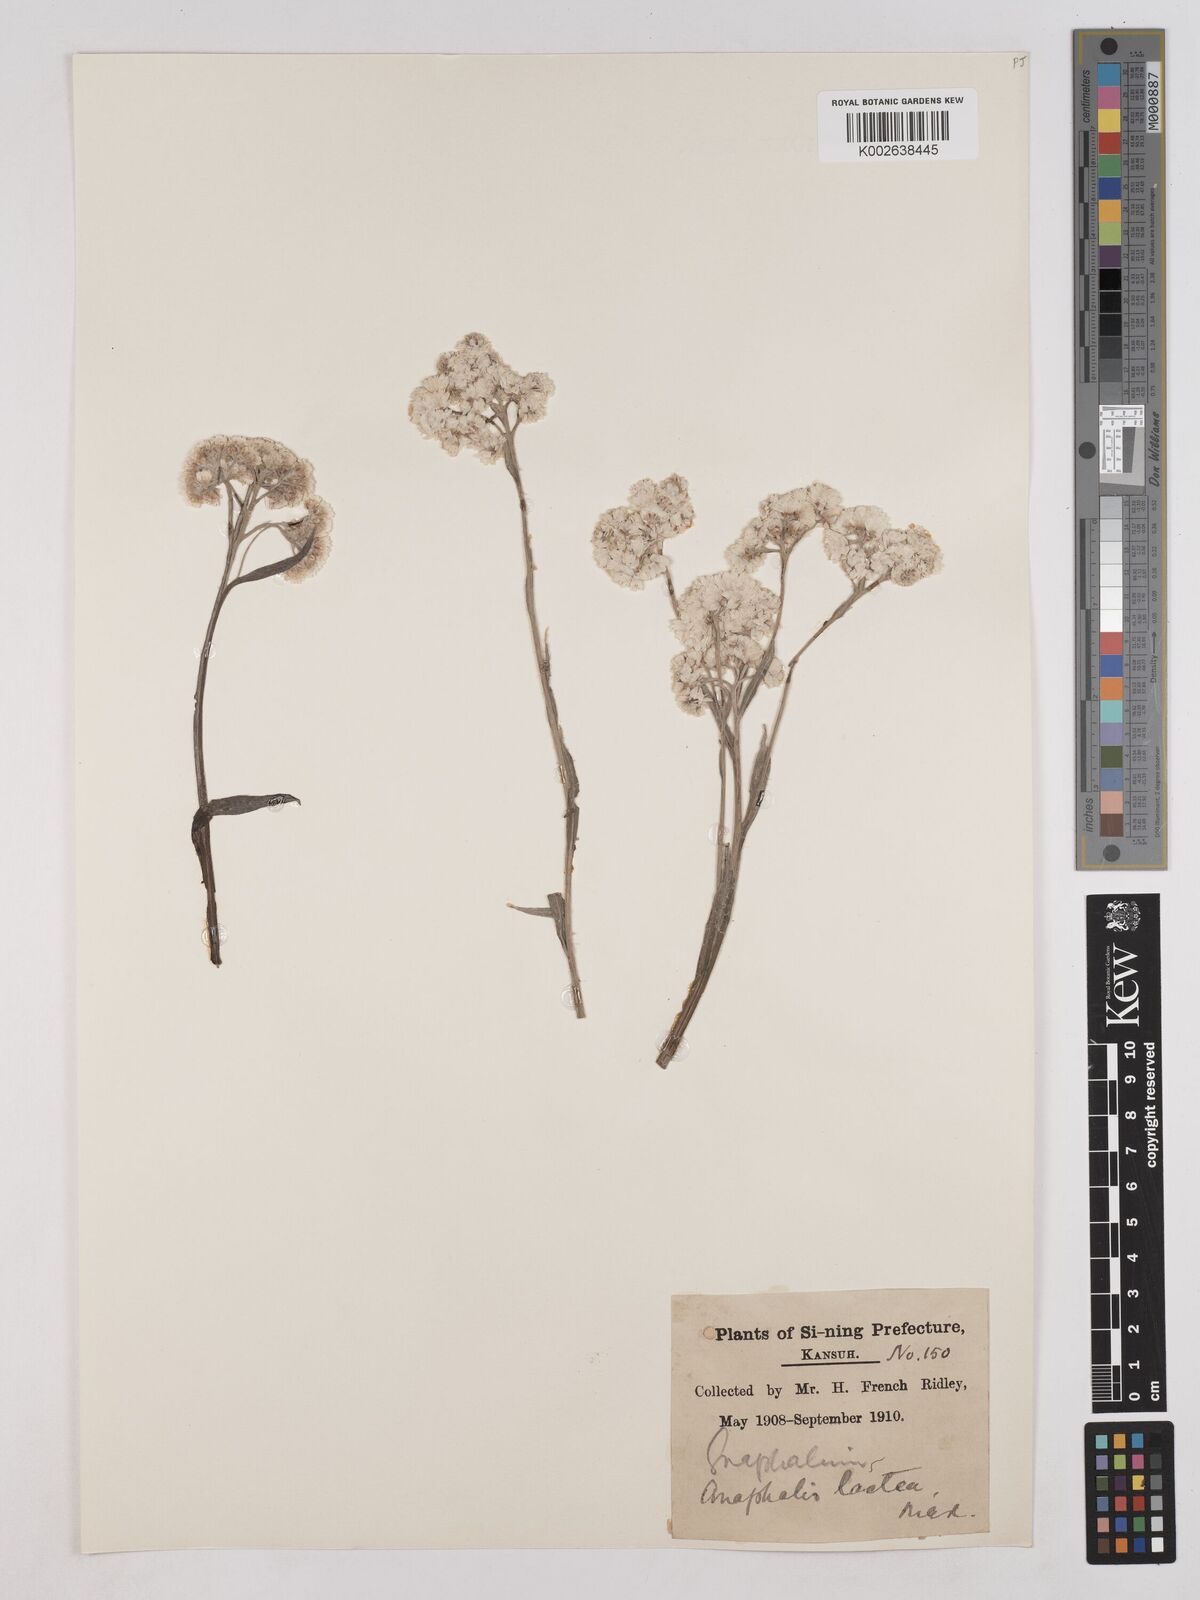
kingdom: Plantae
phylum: Tracheophyta
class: Magnoliopsida
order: Asterales
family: Asteraceae
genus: Anaphalis
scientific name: Anaphalis lactea
